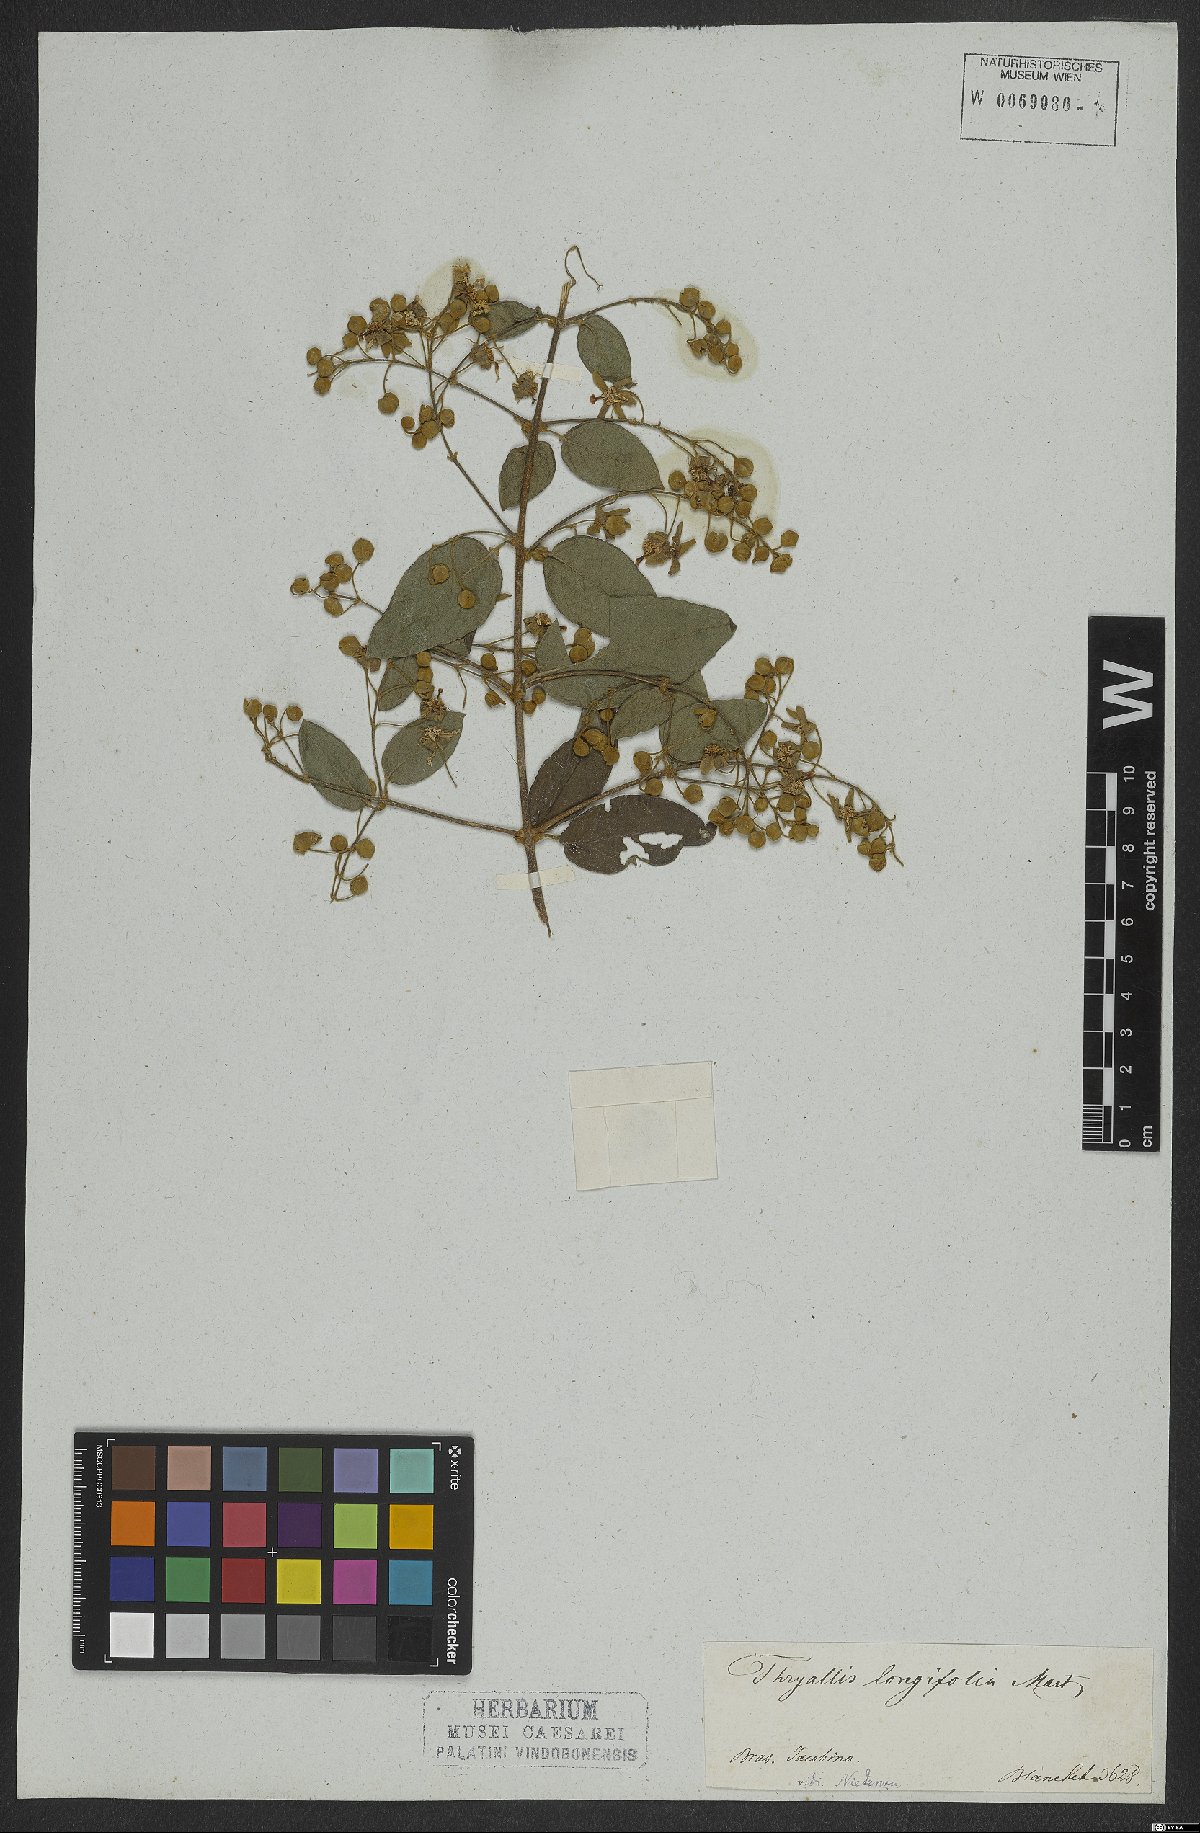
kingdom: Plantae
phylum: Tracheophyta
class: Magnoliopsida
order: Malpighiales
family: Malpighiaceae
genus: Thryallis
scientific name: Thryallis longifolia
